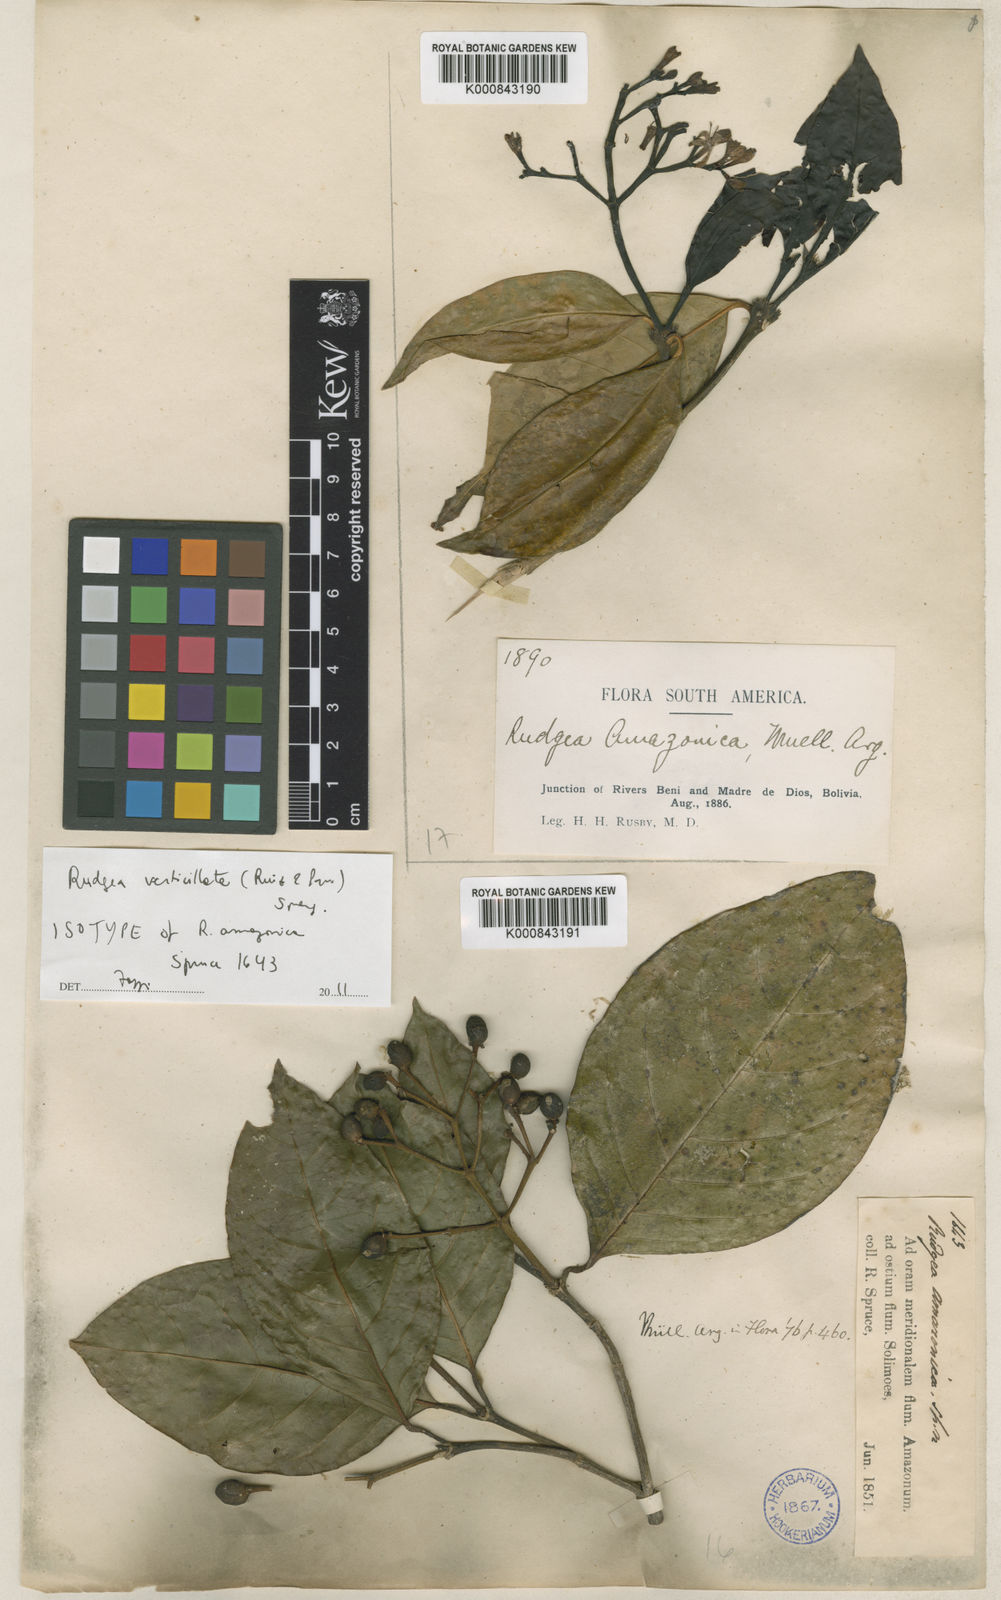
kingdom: Plantae
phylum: Tracheophyta
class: Magnoliopsida
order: Gentianales
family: Rubiaceae
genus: Rudgea
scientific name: Rudgea verticillata
